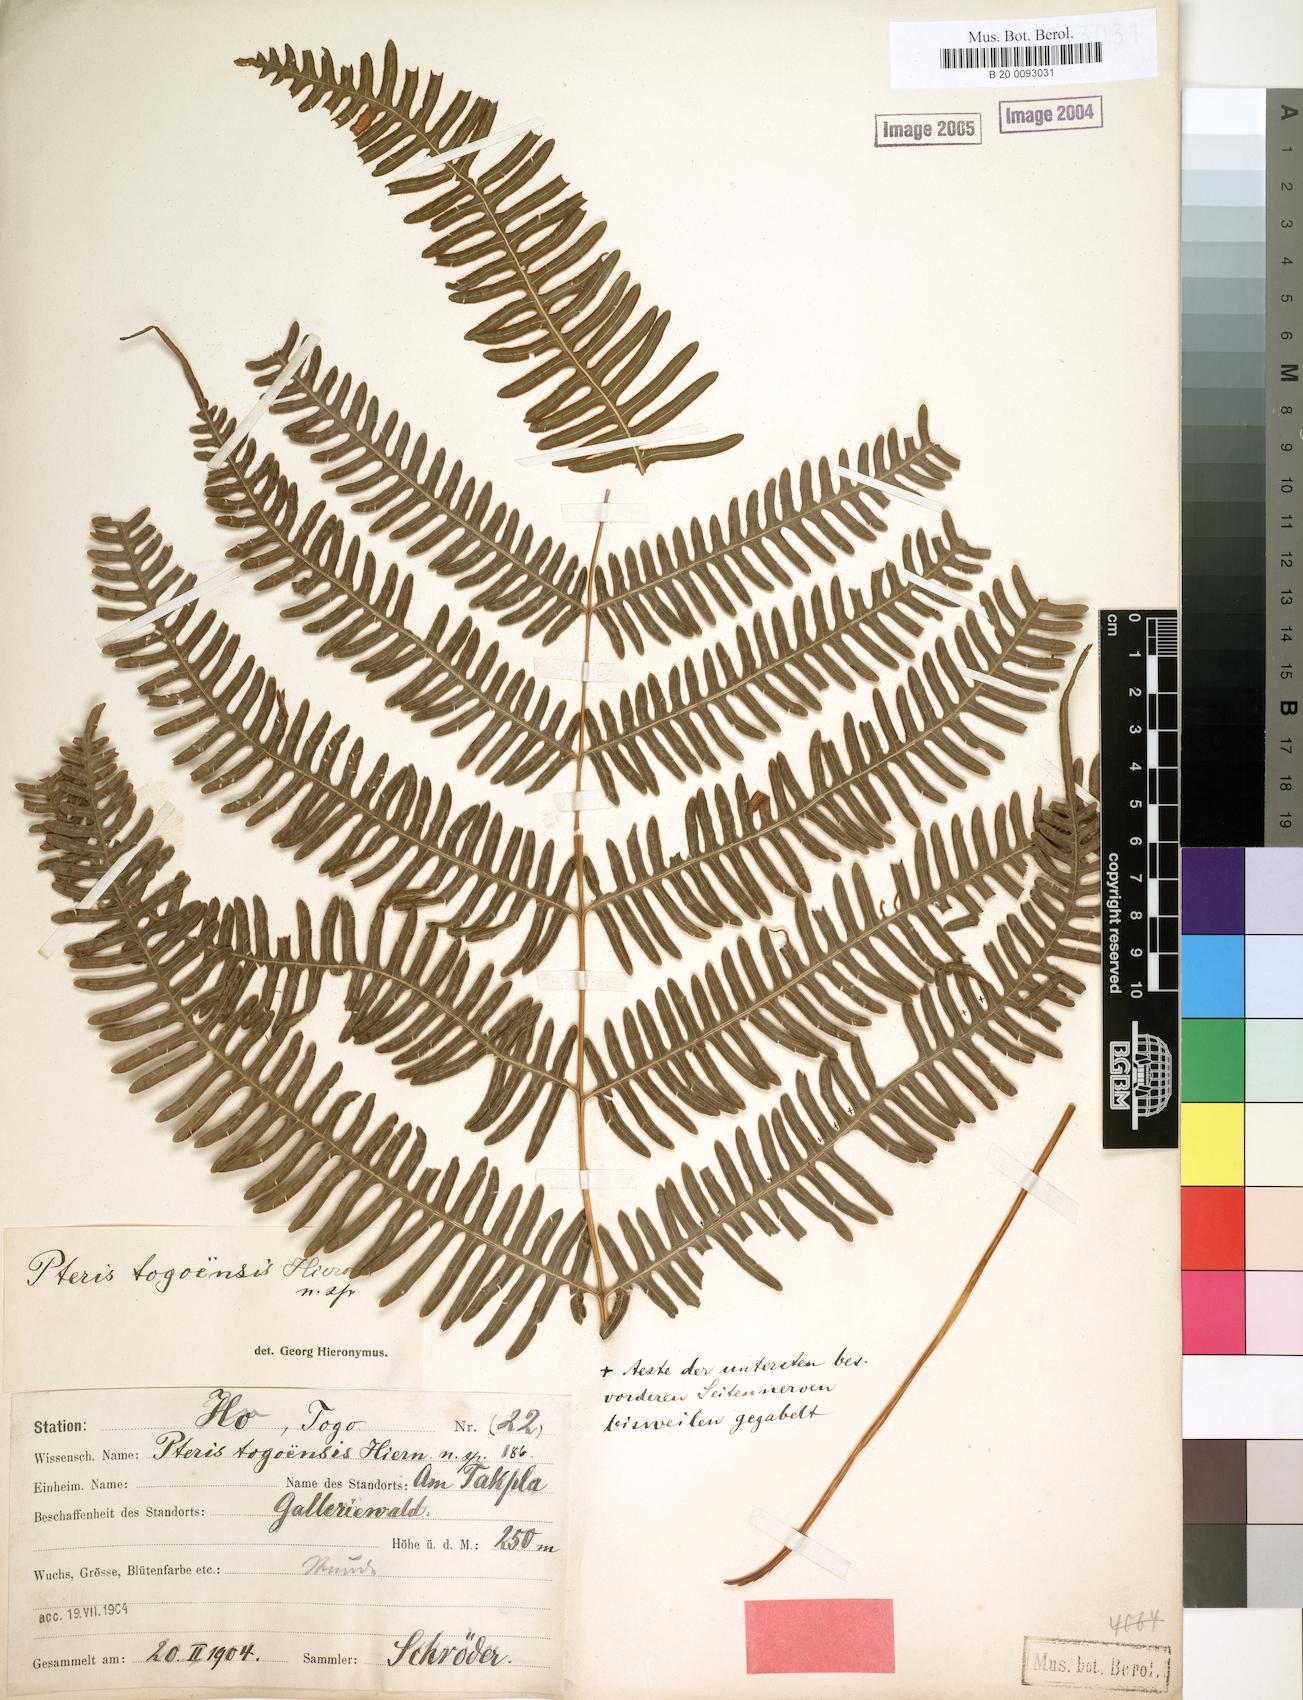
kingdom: Plantae
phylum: Tracheophyta
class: Polypodiopsida
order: Polypodiales
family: Pteridaceae
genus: Pteris
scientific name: Pteris togoensis
